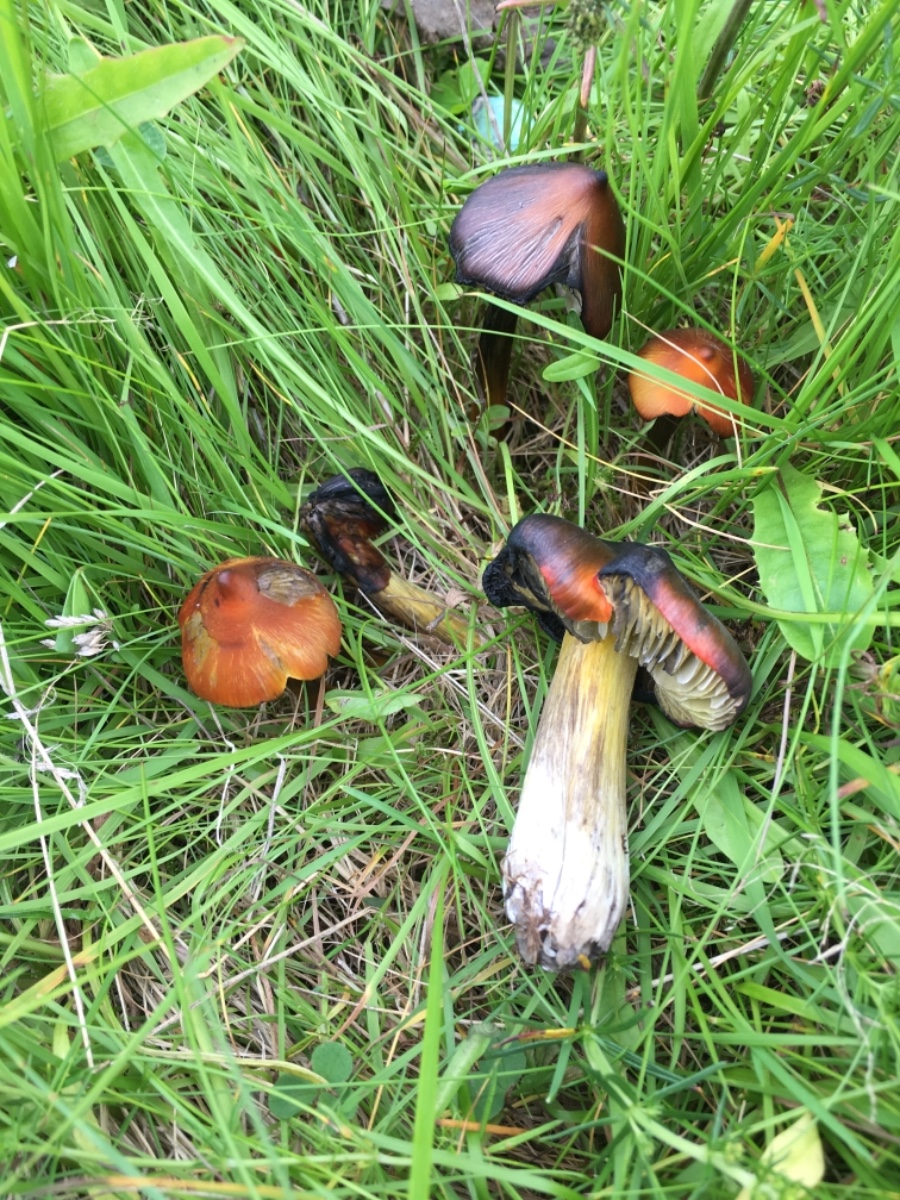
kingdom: Fungi
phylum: Basidiomycota
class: Agaricomycetes
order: Agaricales
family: Hygrophoraceae
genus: Hygrocybe
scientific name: Hygrocybe conica
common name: kegle-vokshat
